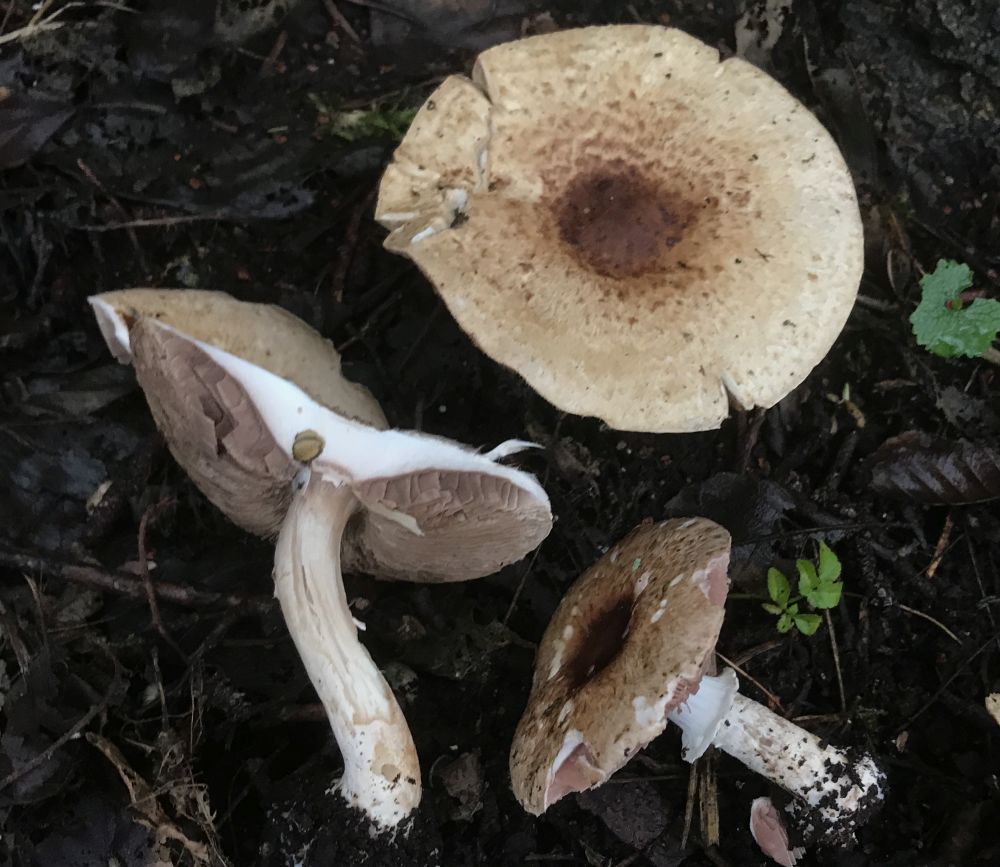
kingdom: Fungi
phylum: Basidiomycota
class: Agaricomycetes
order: Agaricales
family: Agaricaceae
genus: Agaricus
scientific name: Agaricus impudicus
